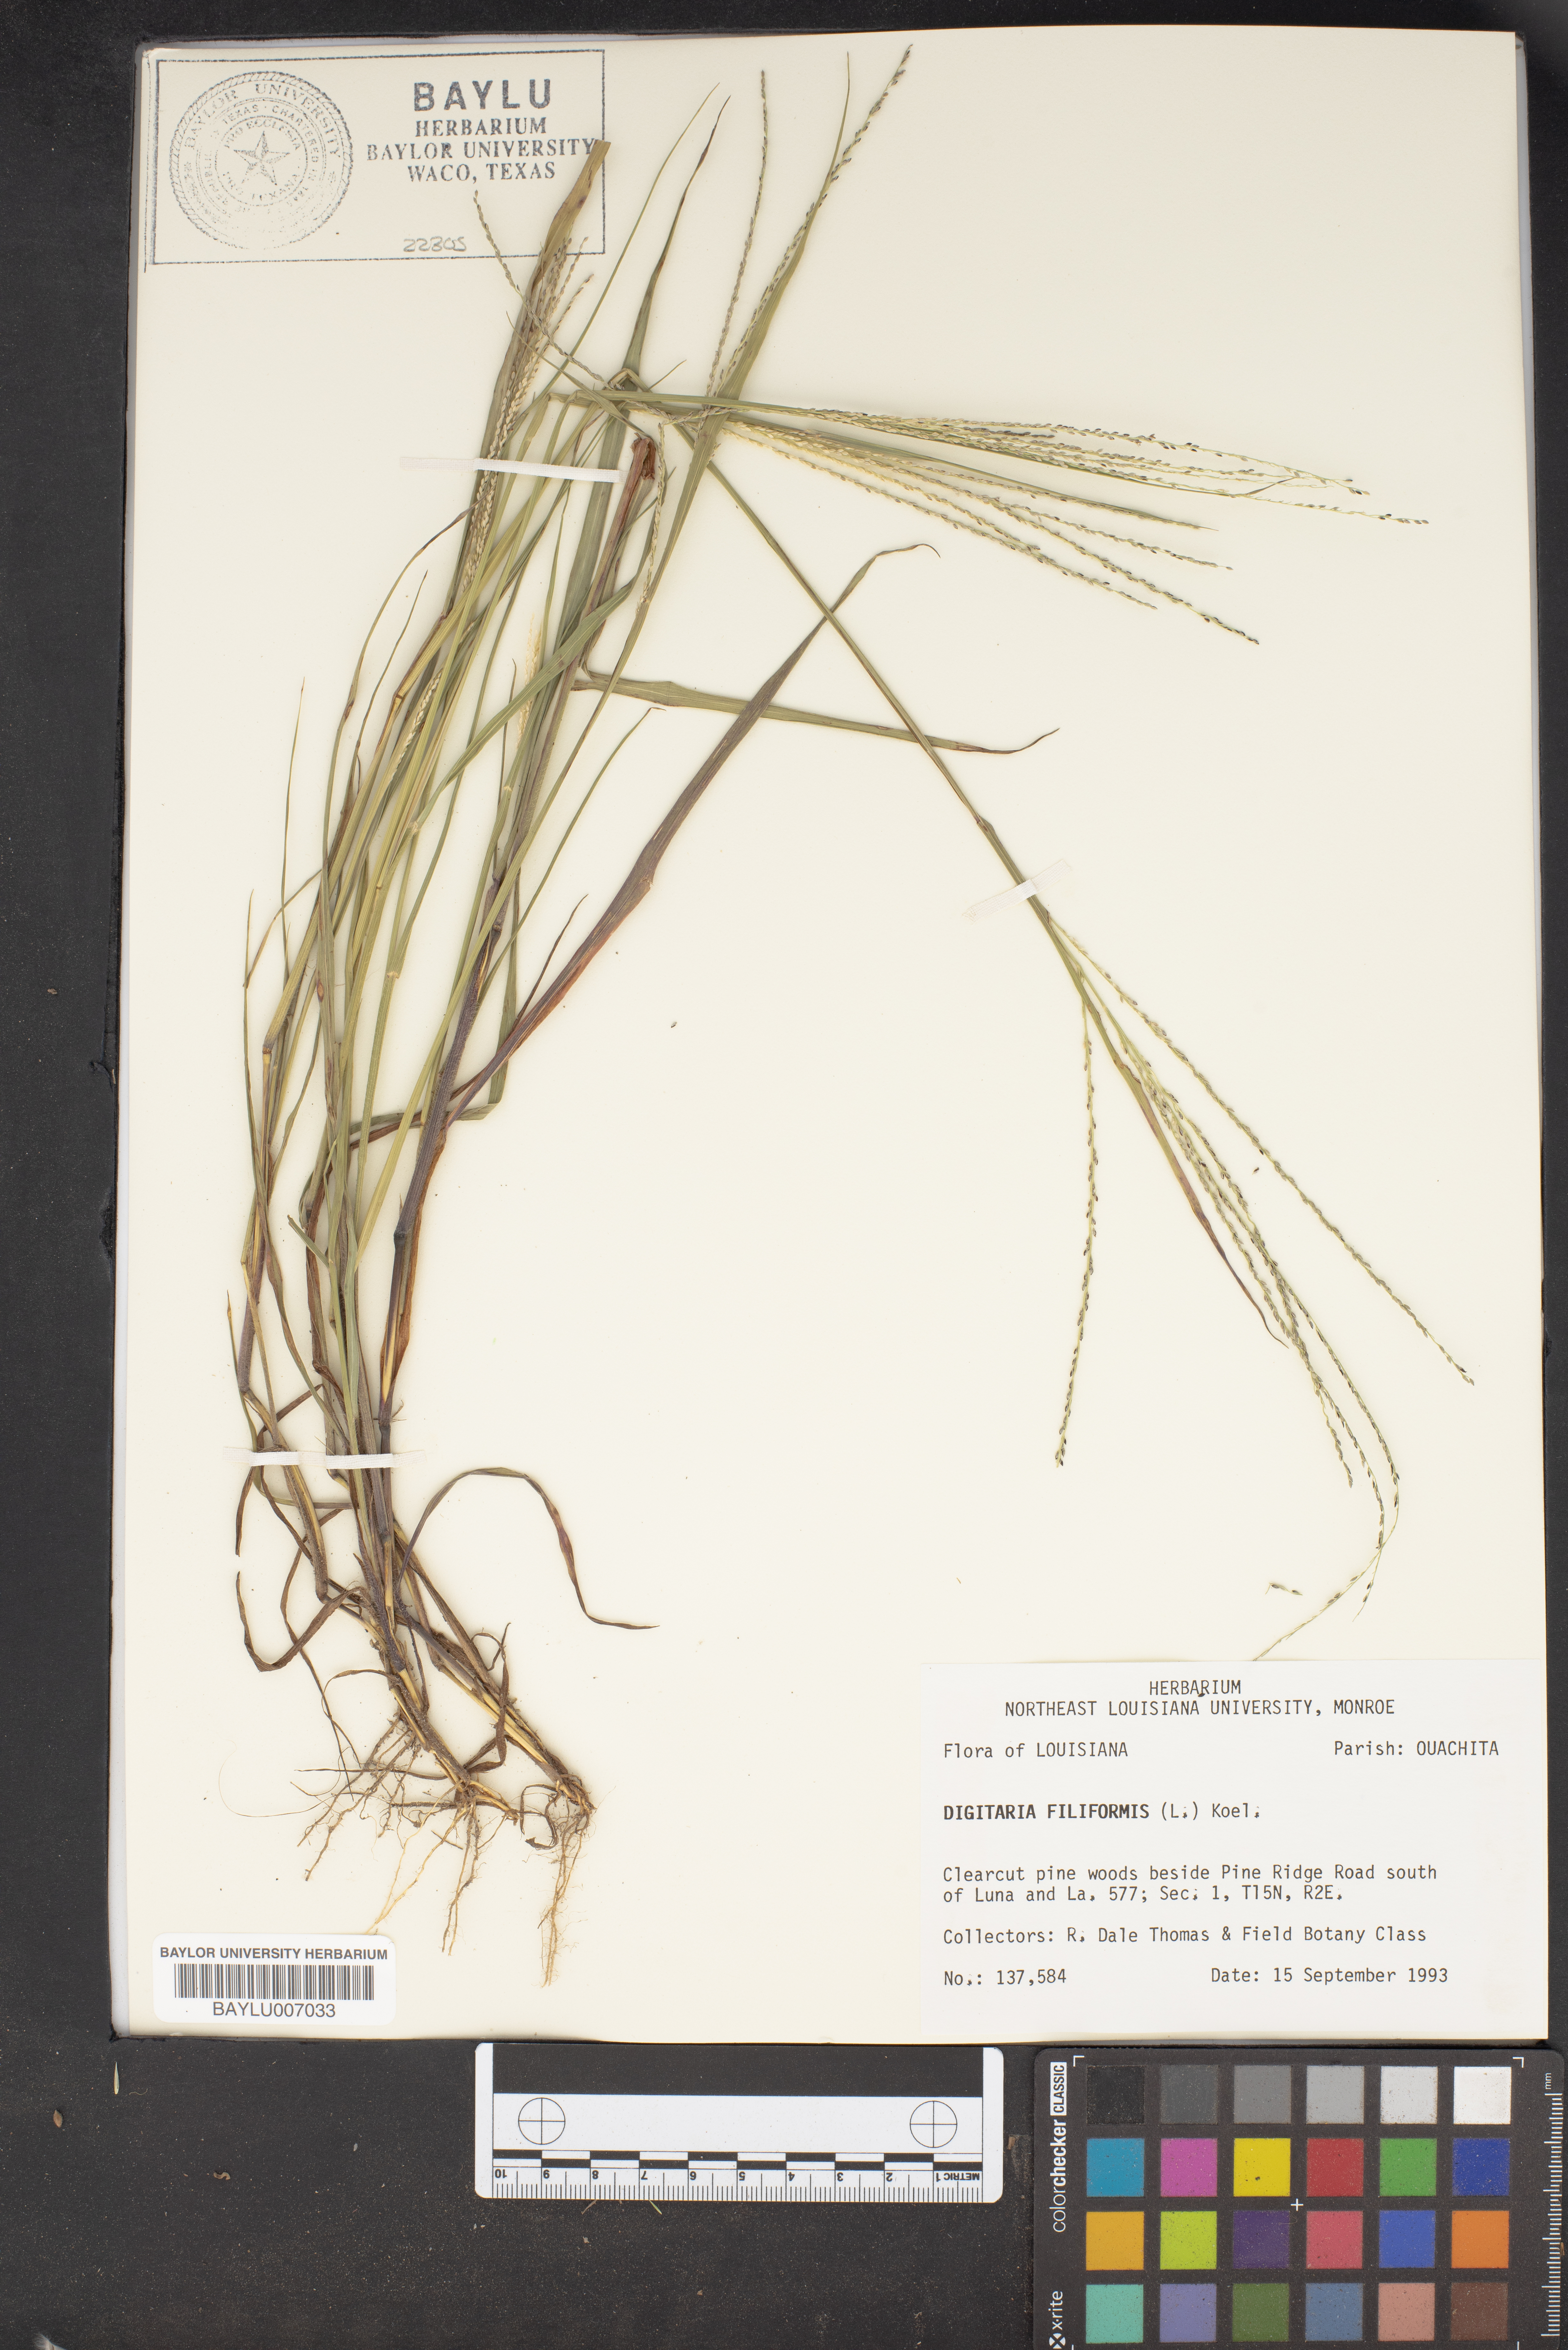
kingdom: Plantae
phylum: Tracheophyta
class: Liliopsida
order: Poales
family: Poaceae
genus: Digitaria
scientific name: Digitaria filiformis
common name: Slender crabgrass
